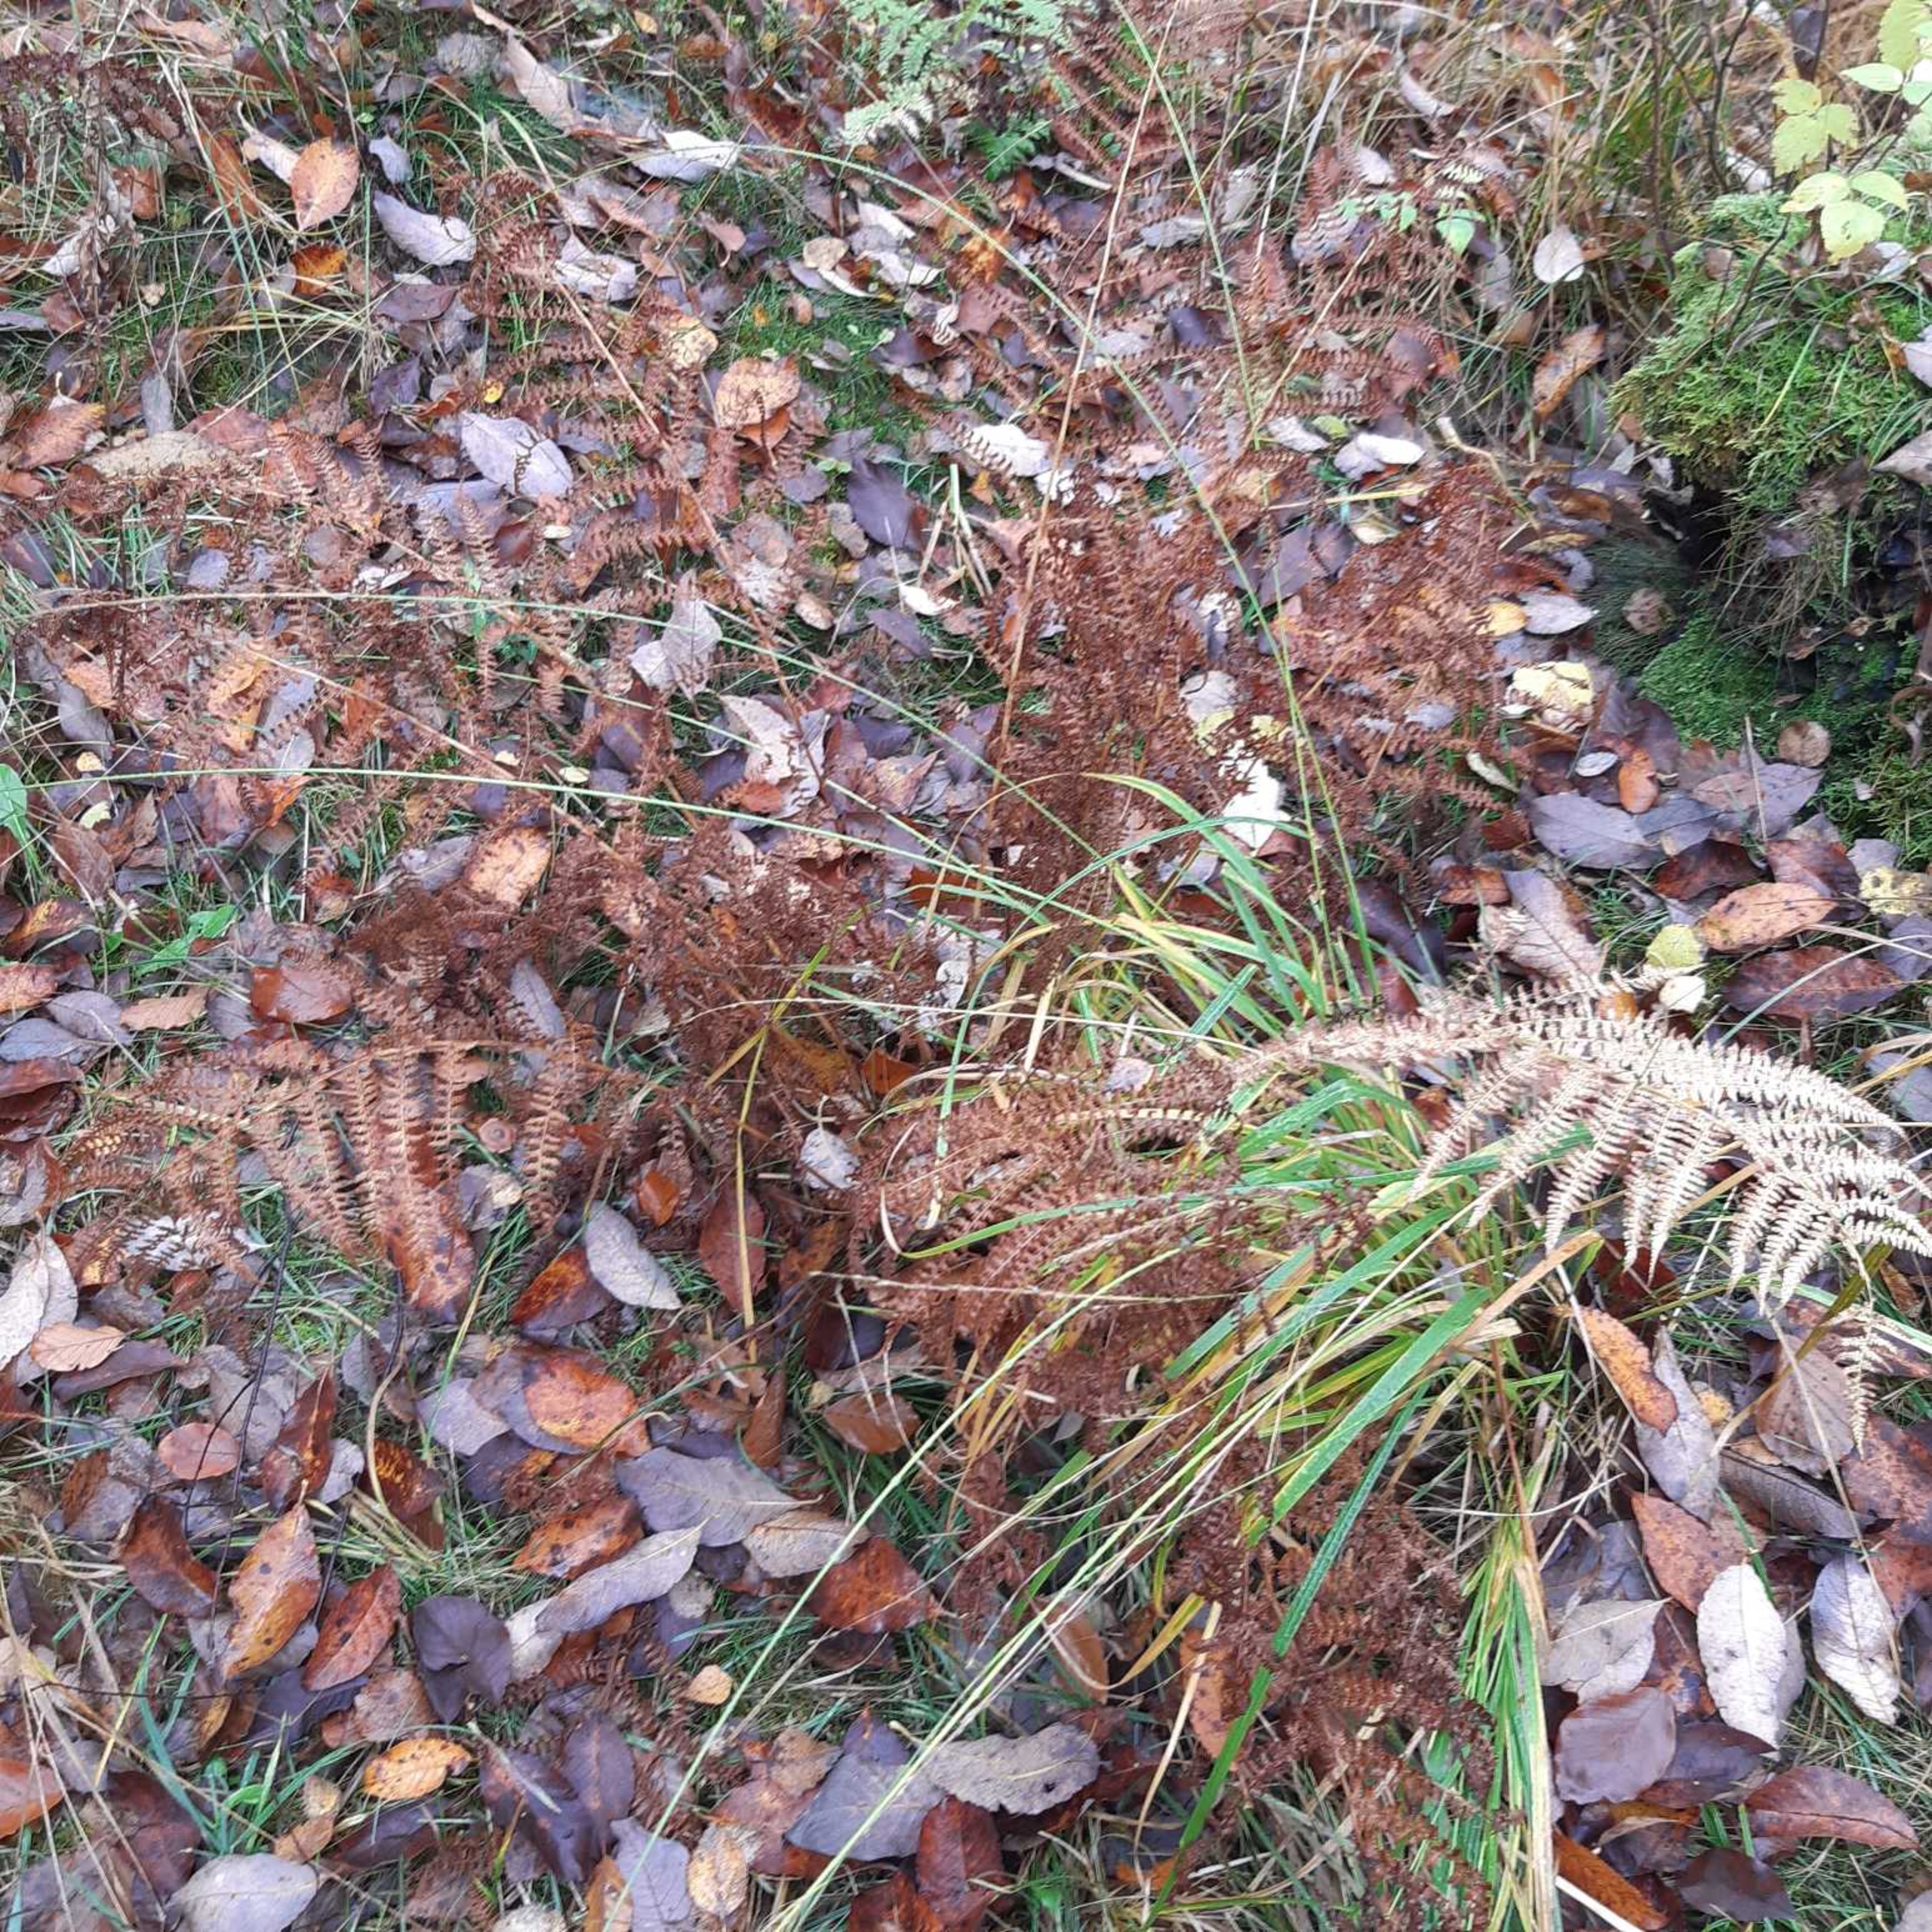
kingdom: Plantae
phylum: Tracheophyta
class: Polypodiopsida
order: Polypodiales
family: Athyriaceae
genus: Athyrium
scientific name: Athyrium filix-femina
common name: Fjerbregne
